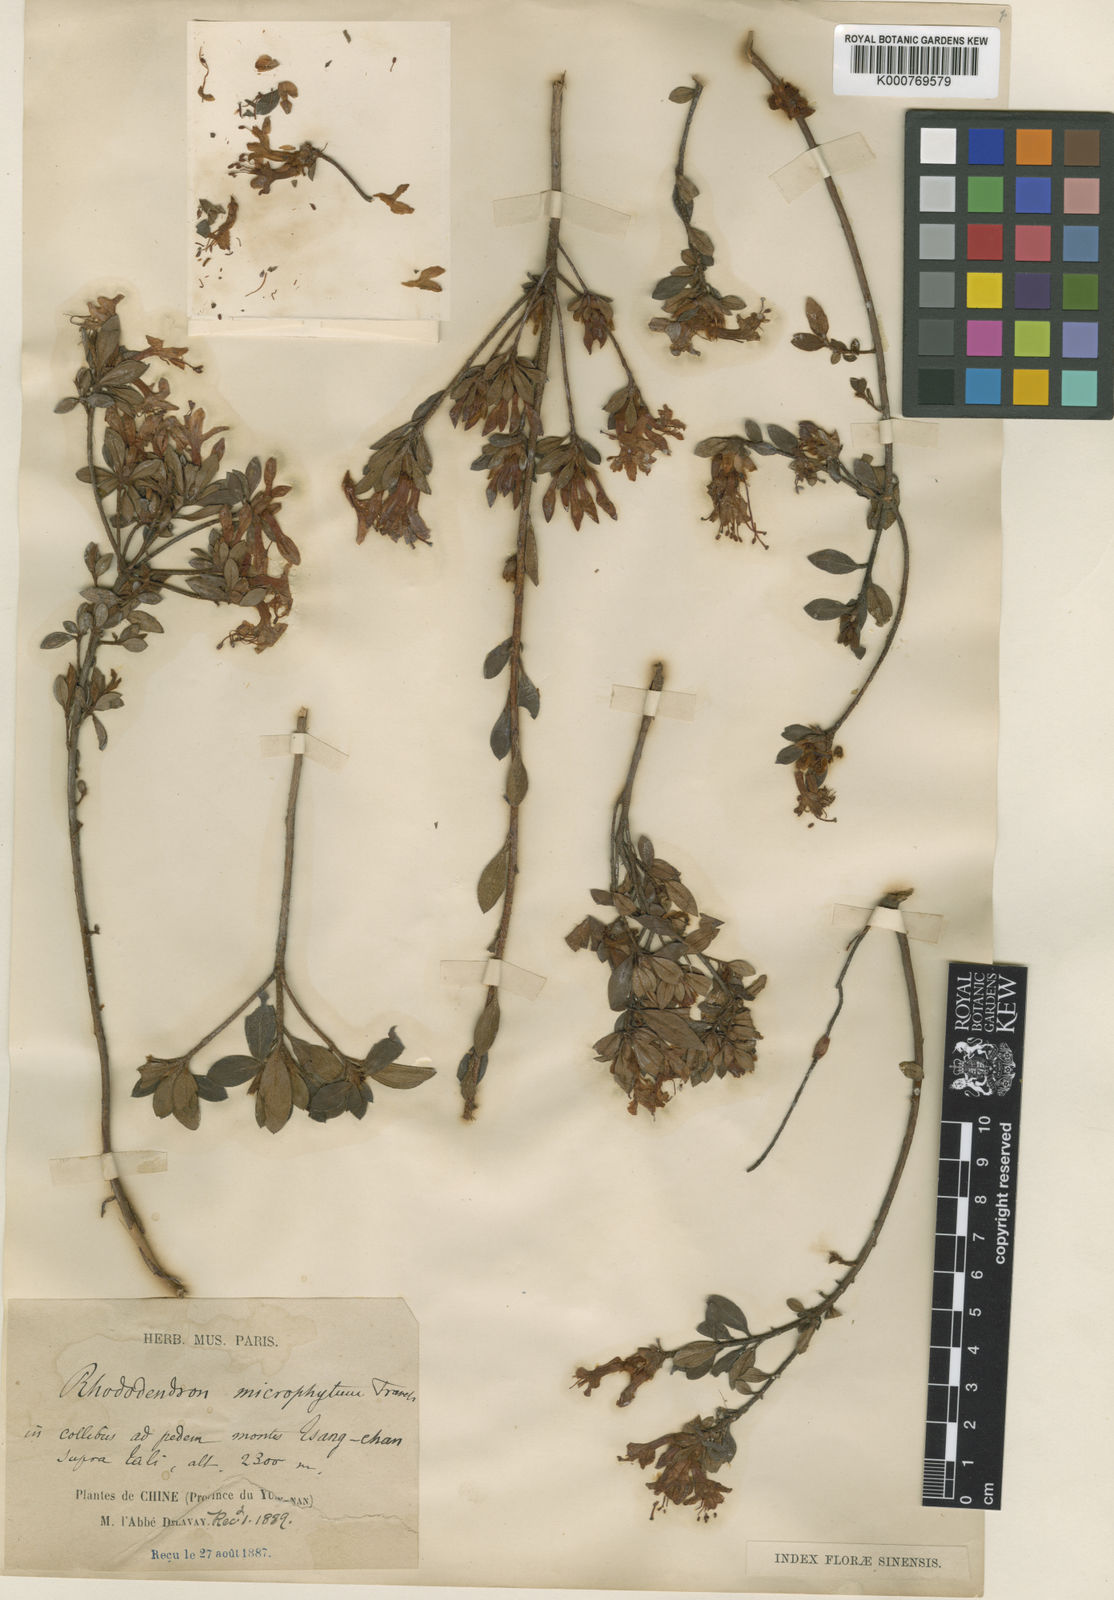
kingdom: Plantae
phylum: Tracheophyta
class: Magnoliopsida
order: Ericales
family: Ericaceae
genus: Rhododendron
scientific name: Rhododendron microphyton
